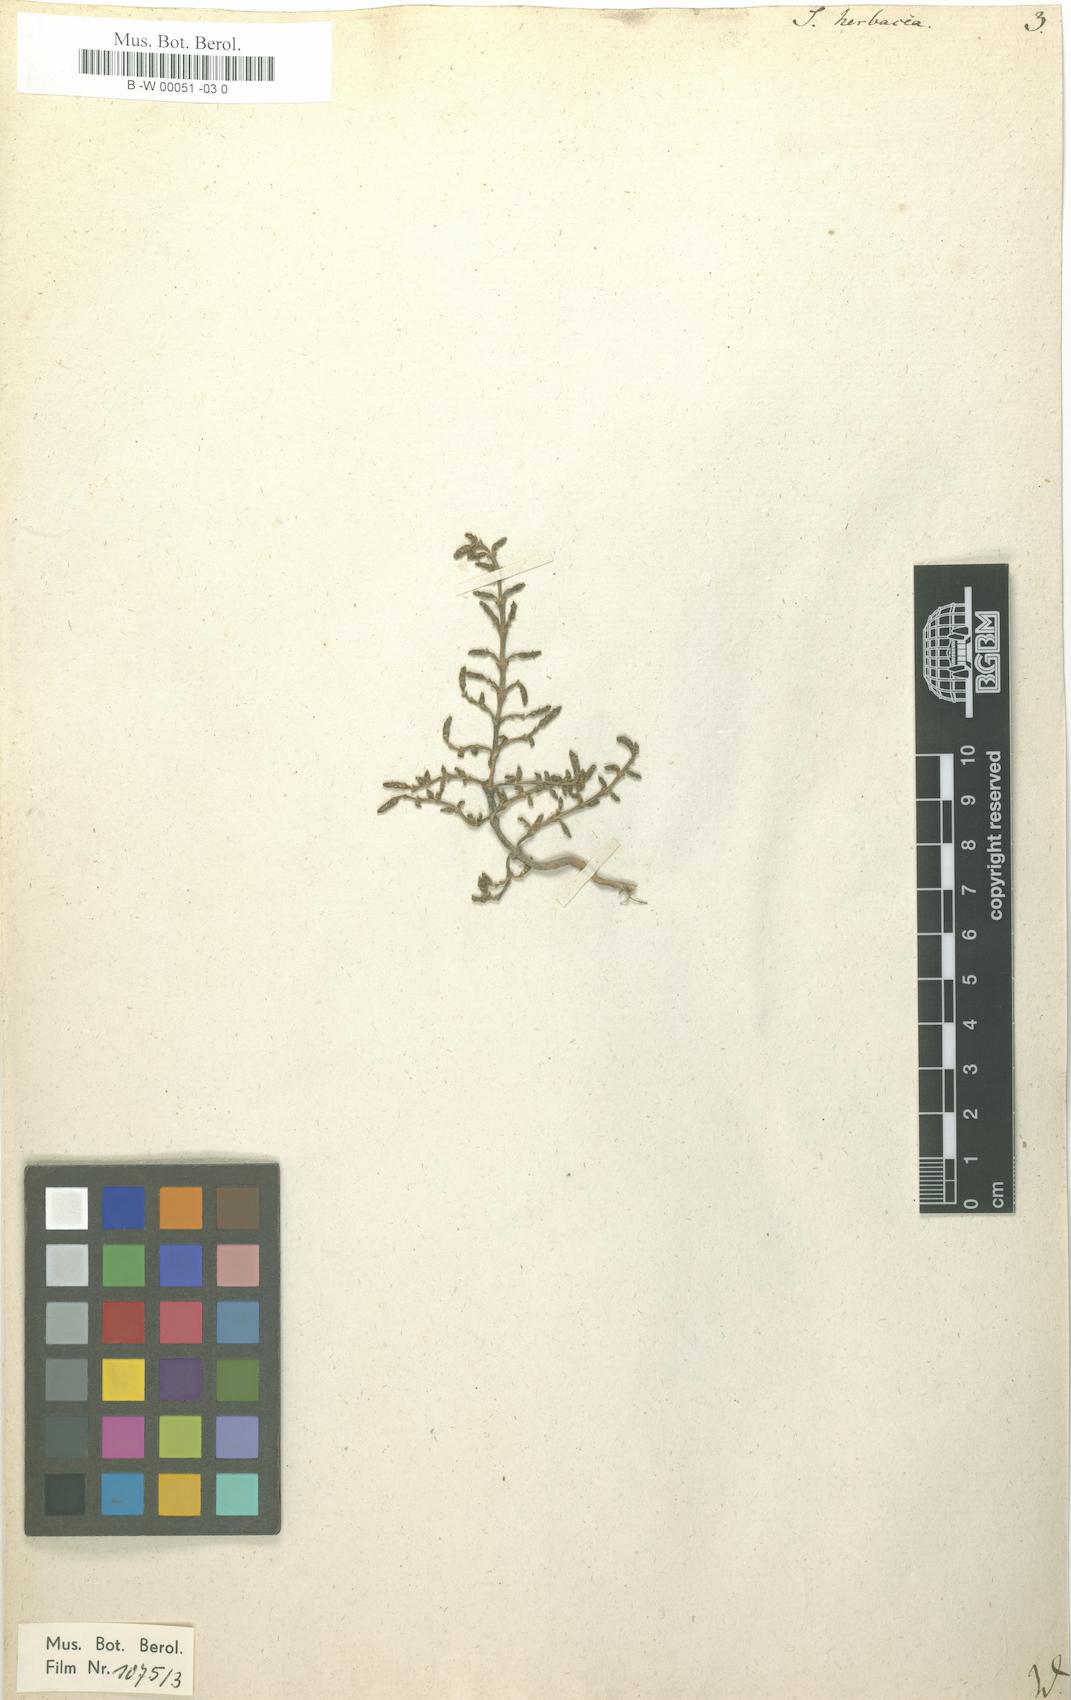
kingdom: Plantae
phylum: Tracheophyta
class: Magnoliopsida
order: Caryophyllales
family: Amaranthaceae
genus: Salicornia
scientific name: Salicornia europaea
